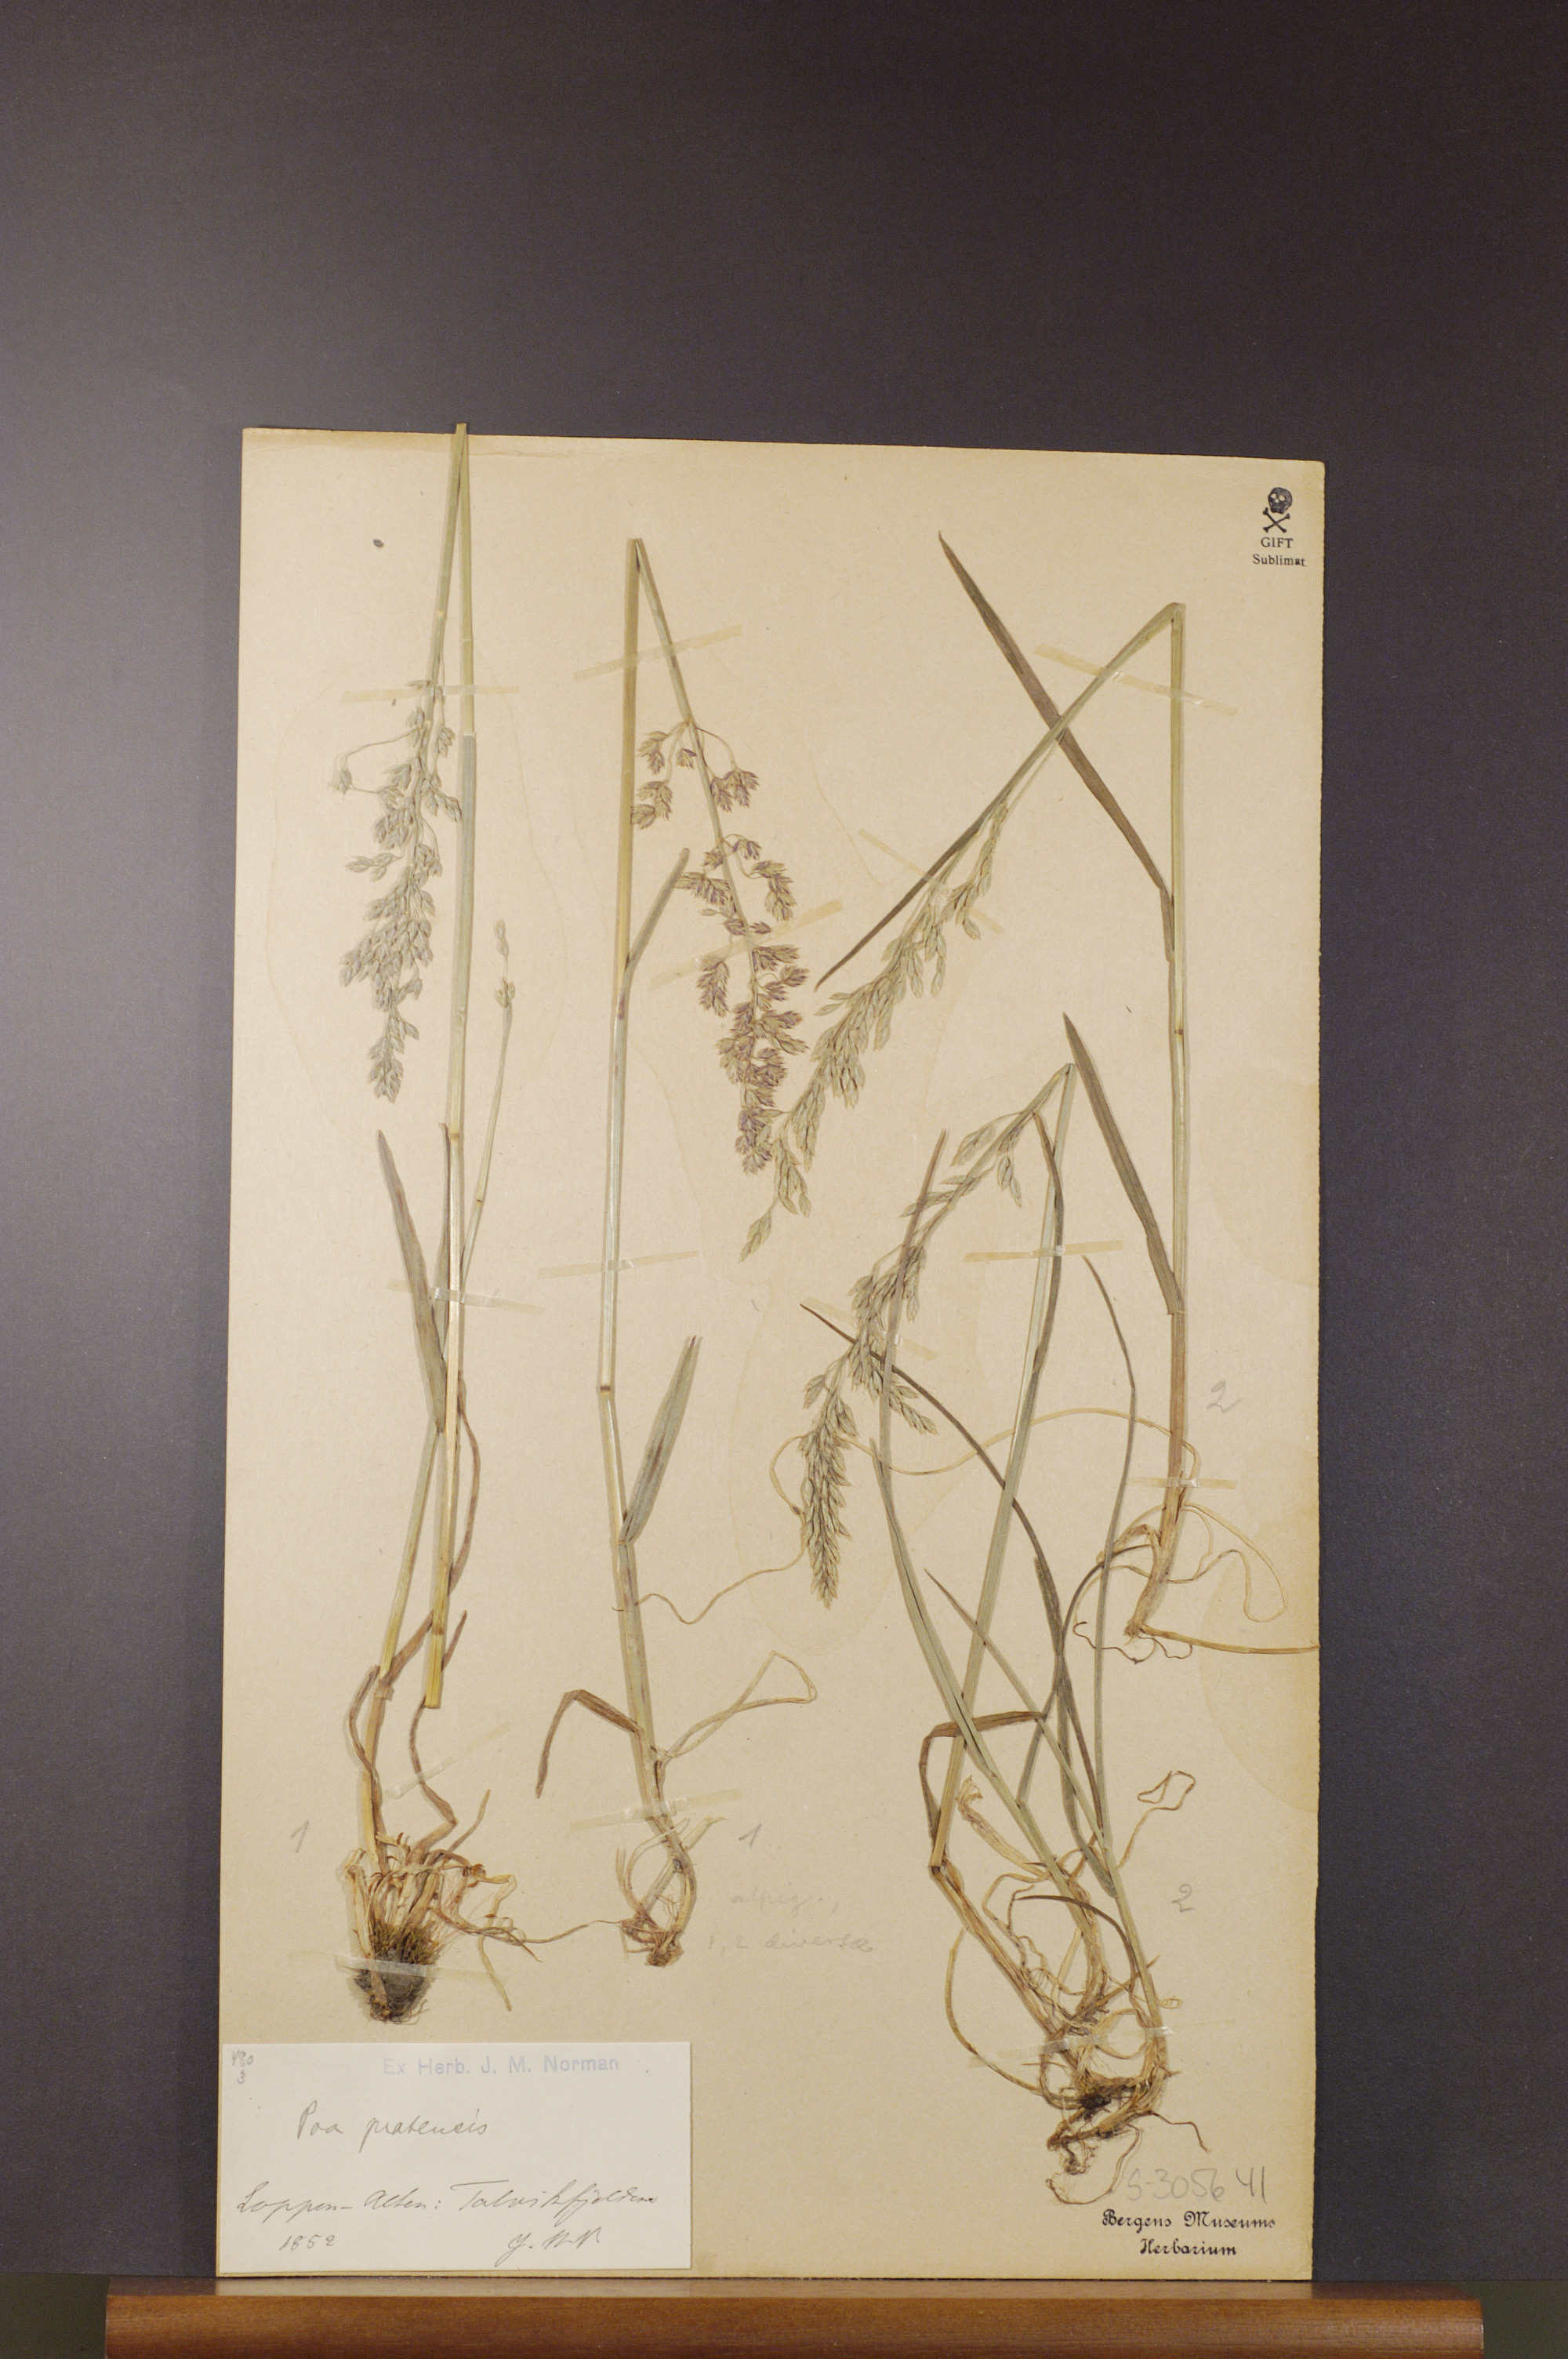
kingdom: Plantae
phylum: Tracheophyta
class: Liliopsida
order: Poales
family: Poaceae
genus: Poa
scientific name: Poa pratensis
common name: Kentucky bluegrass
